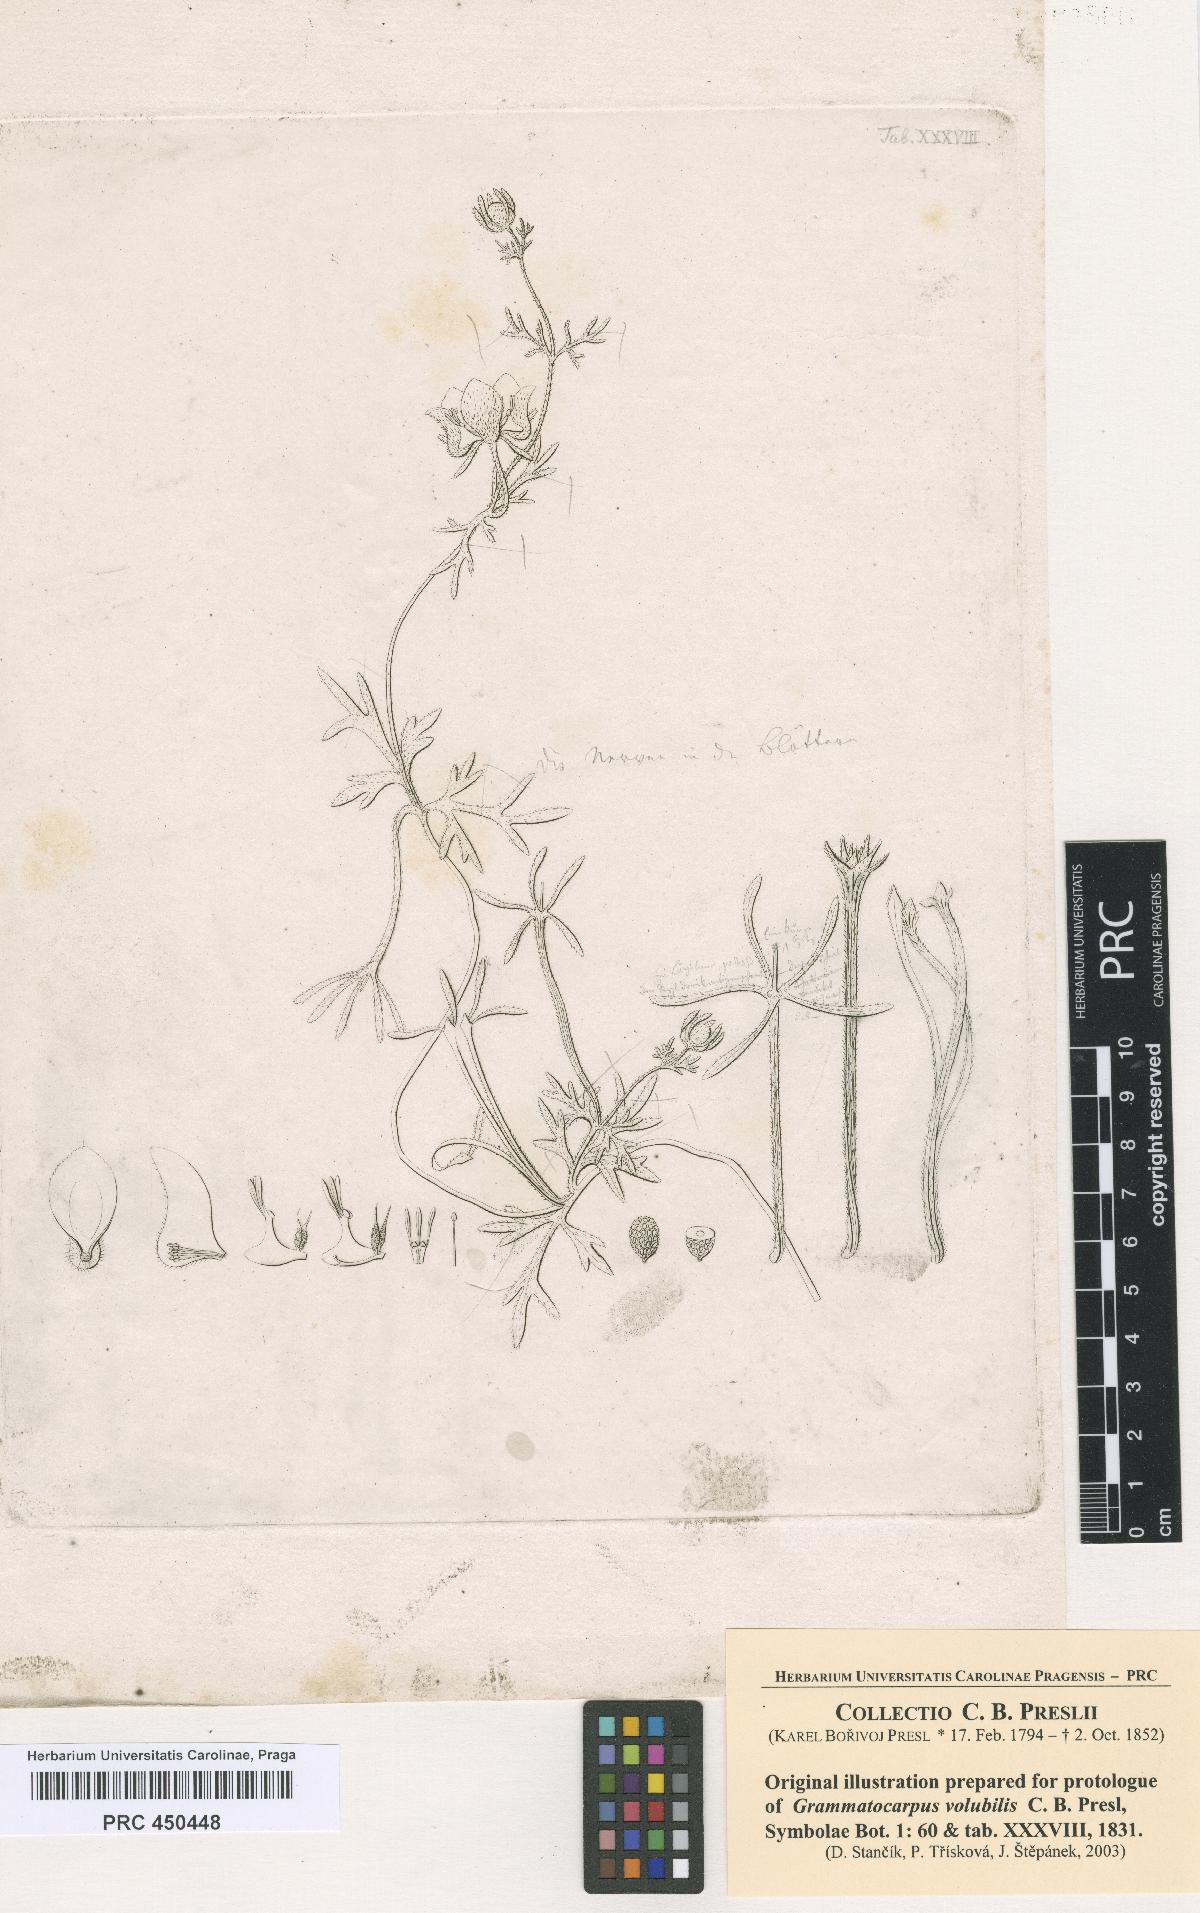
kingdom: Plantae
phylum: Tracheophyta
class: Magnoliopsida
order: Cornales
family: Loasaceae
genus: Scyphanthus
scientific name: Scyphanthus elegans
